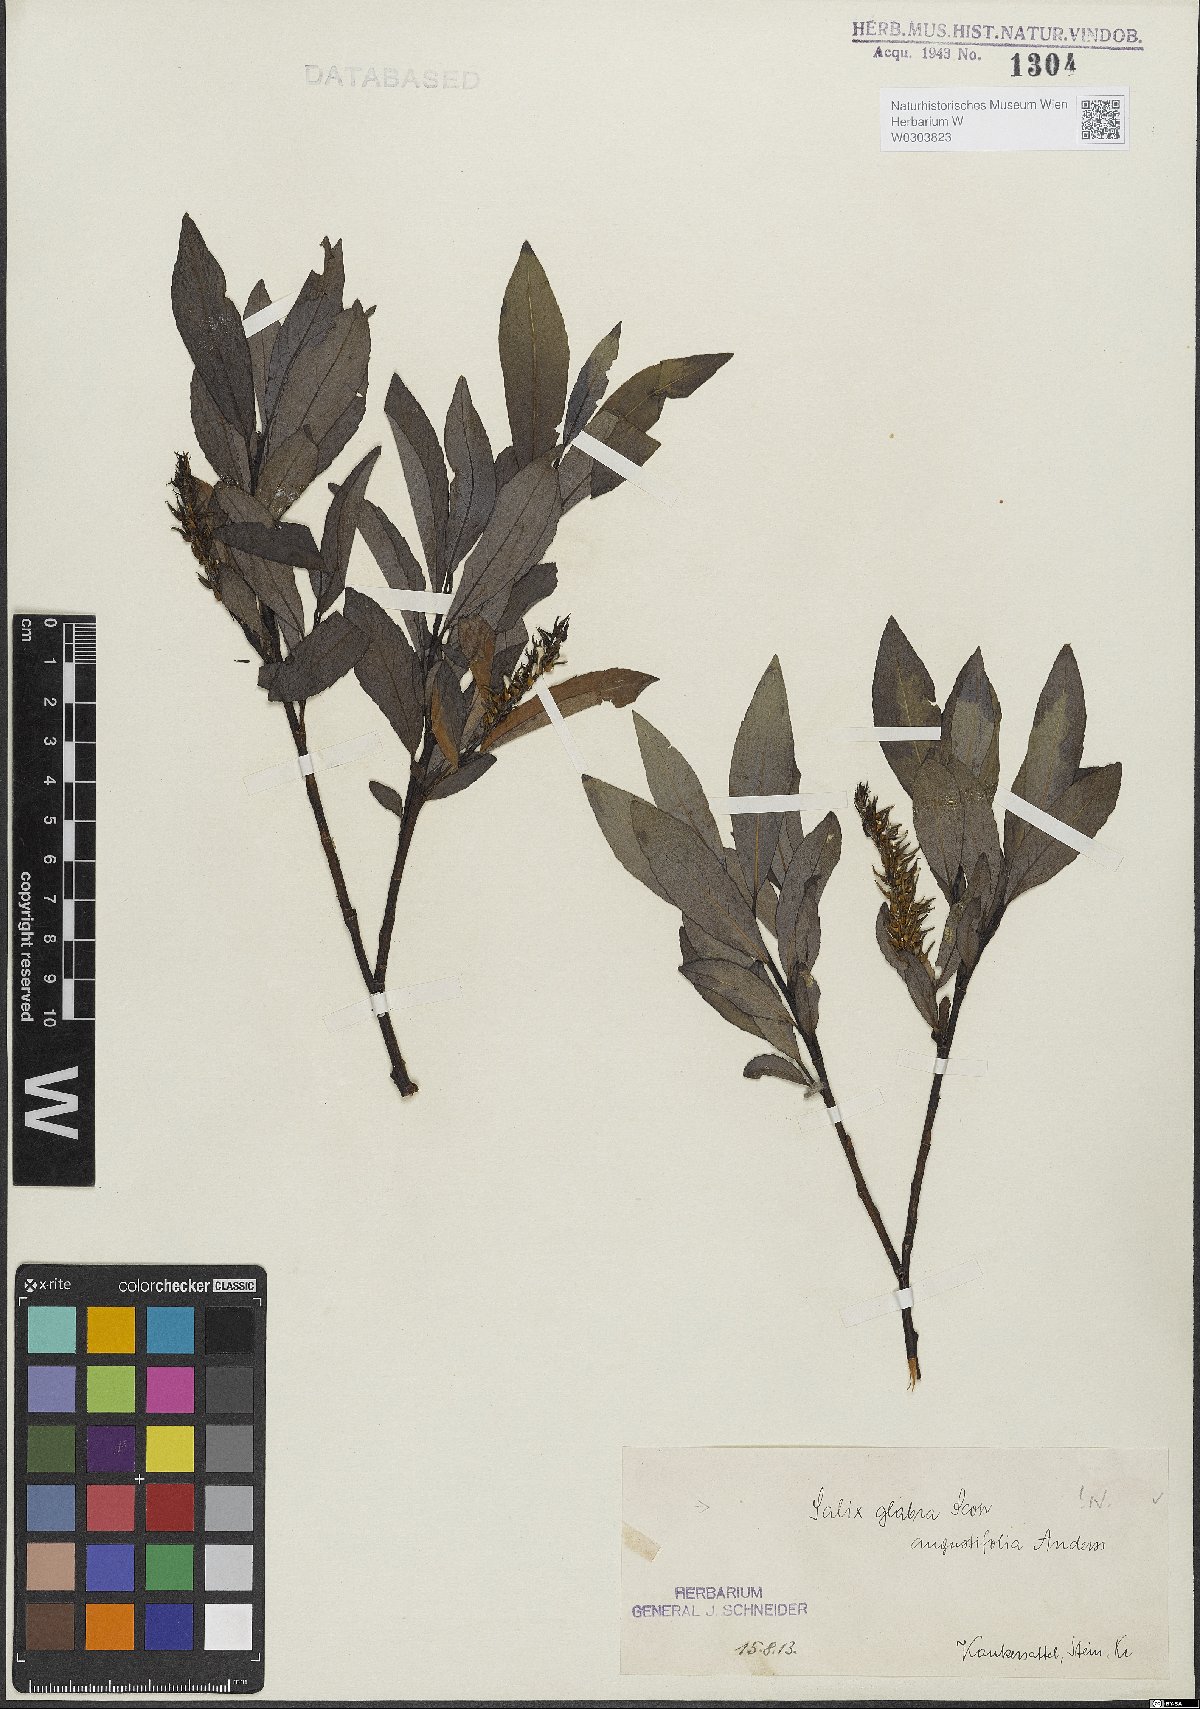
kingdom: Plantae
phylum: Tracheophyta
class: Magnoliopsida
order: Malpighiales
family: Salicaceae
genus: Salix
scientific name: Salix glabra
